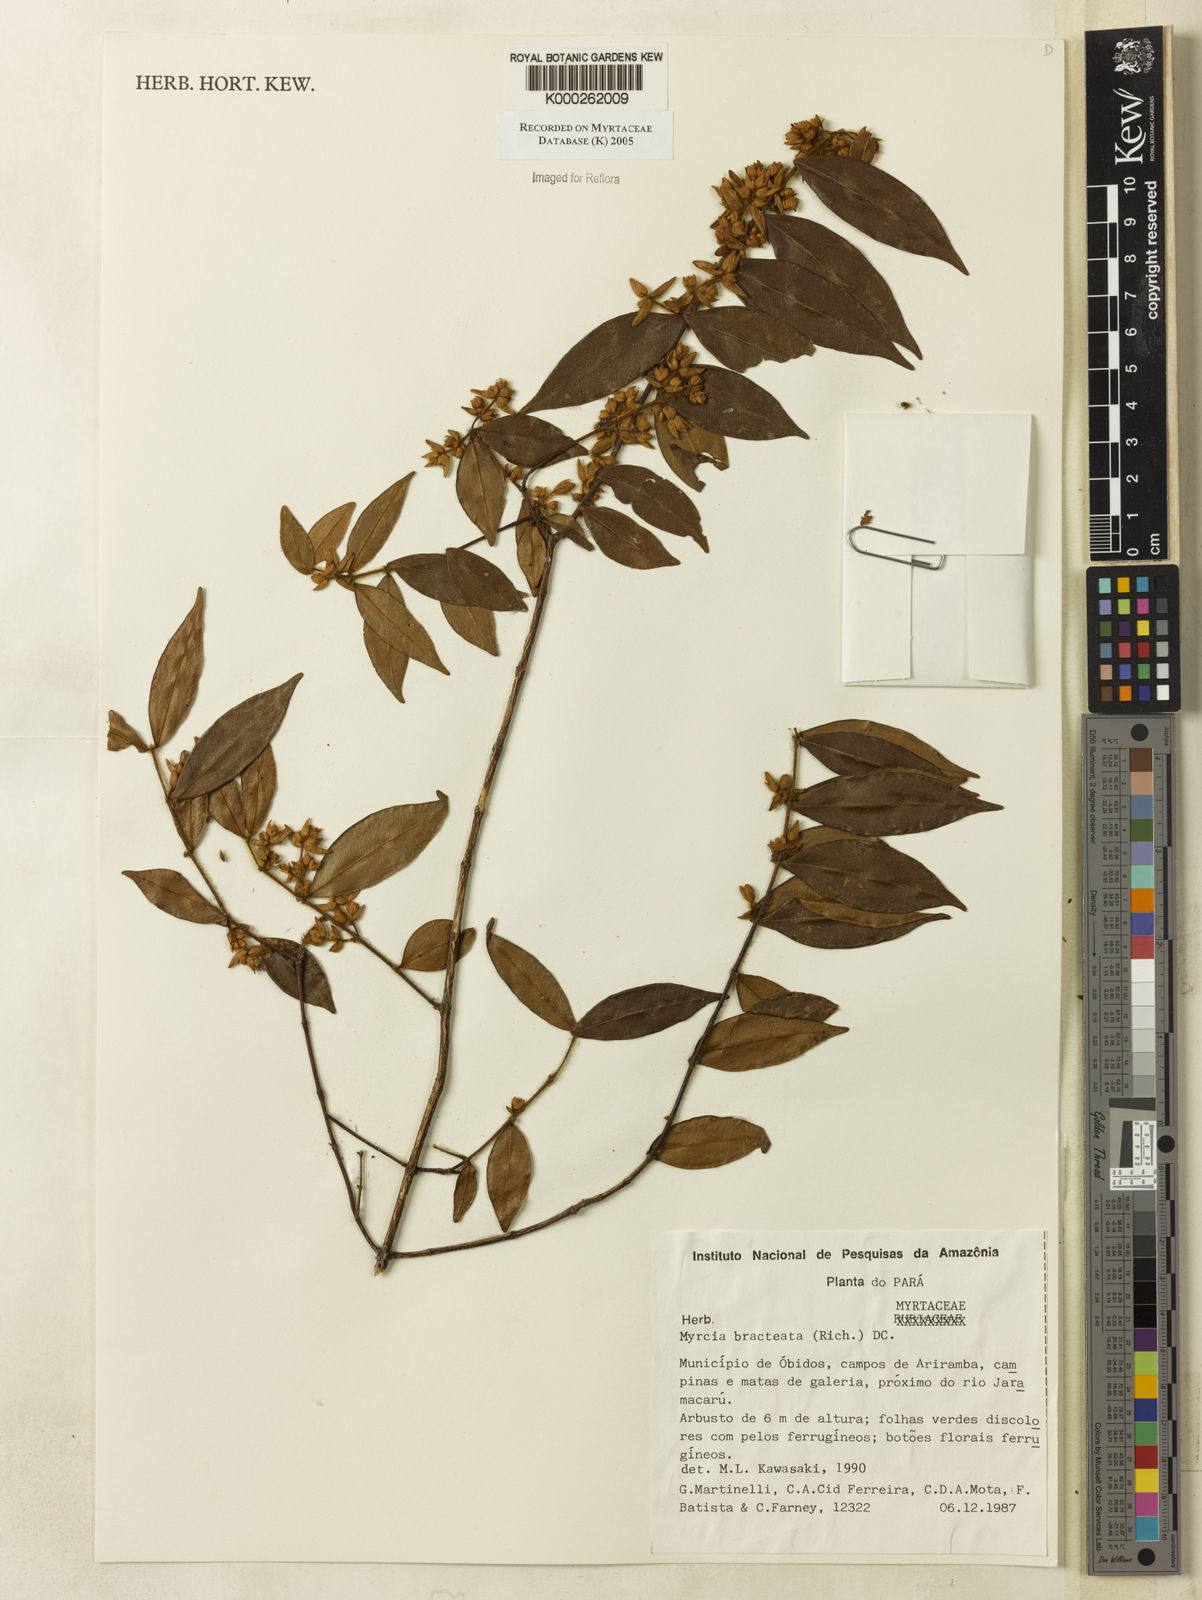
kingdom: Plantae
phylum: Tracheophyta
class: Magnoliopsida
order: Myrtales
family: Myrtaceae
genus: Myrcia
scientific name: Myrcia bracteata
